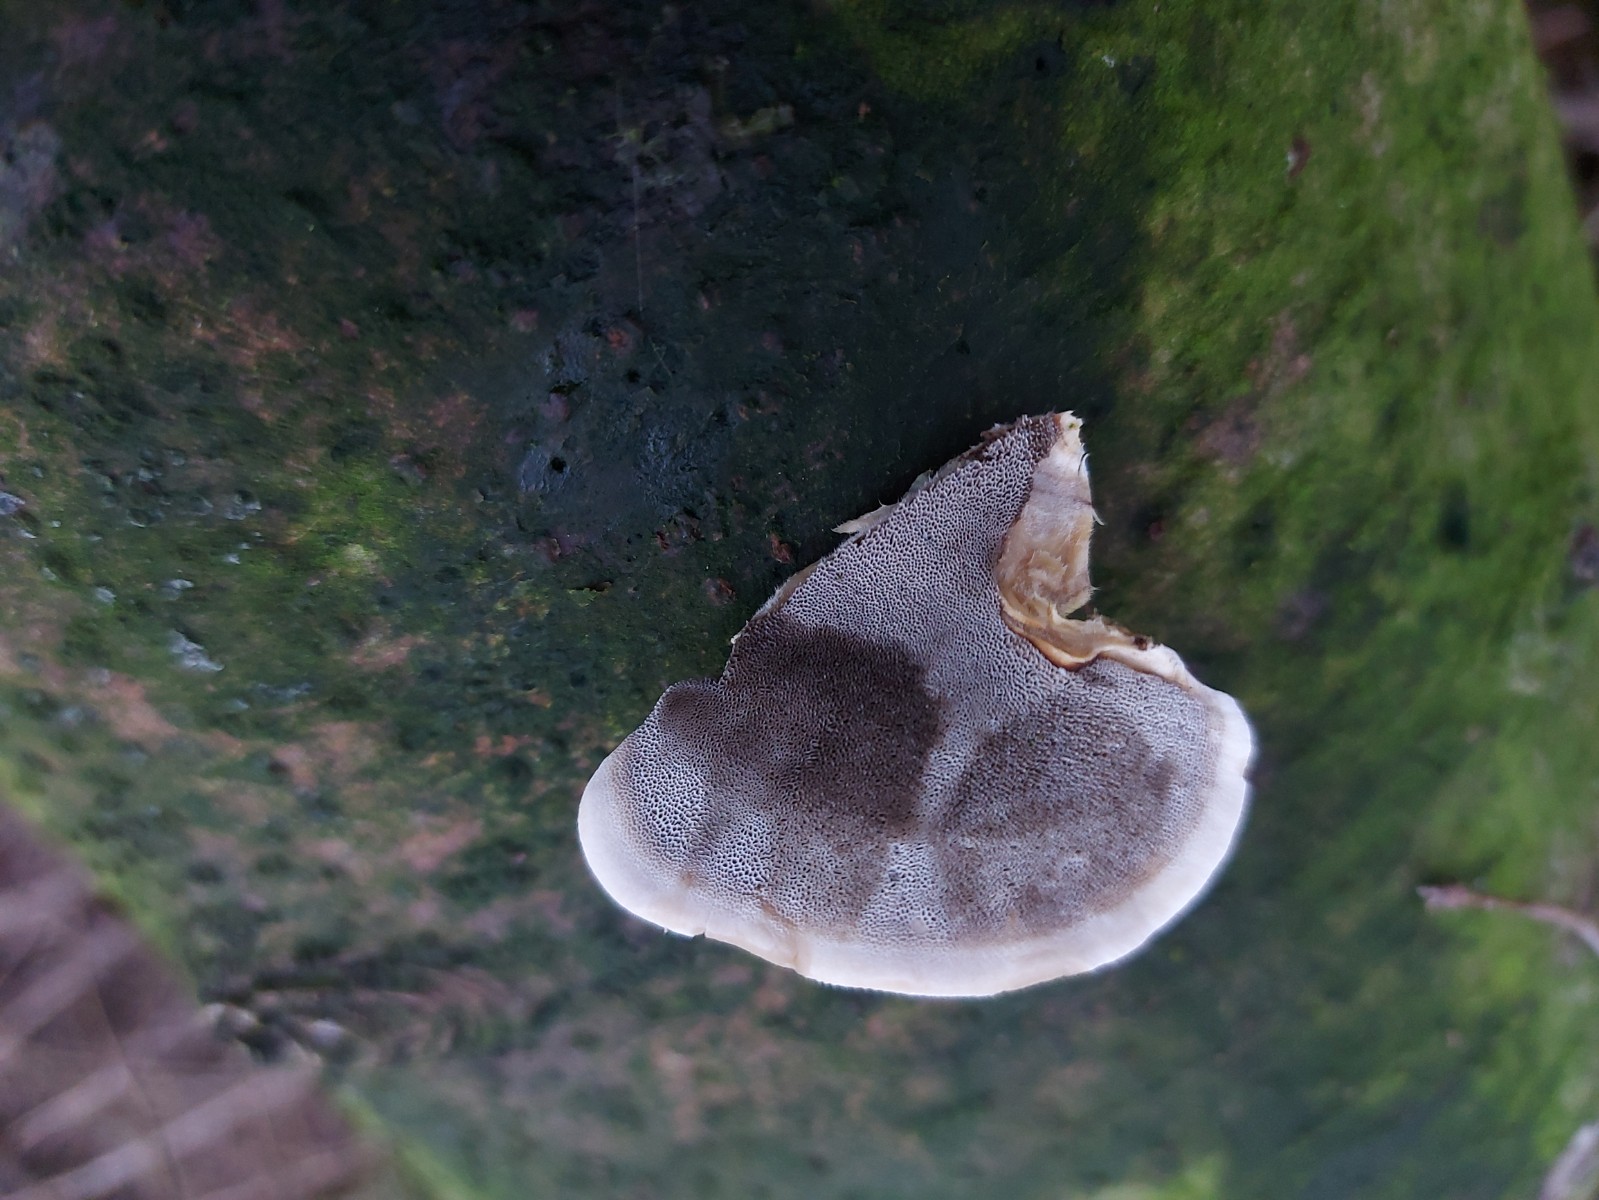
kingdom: Fungi
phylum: Basidiomycota
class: Agaricomycetes
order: Polyporales
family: Phanerochaetaceae
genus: Bjerkandera
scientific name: Bjerkandera adusta
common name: sveden sodporesvamp
